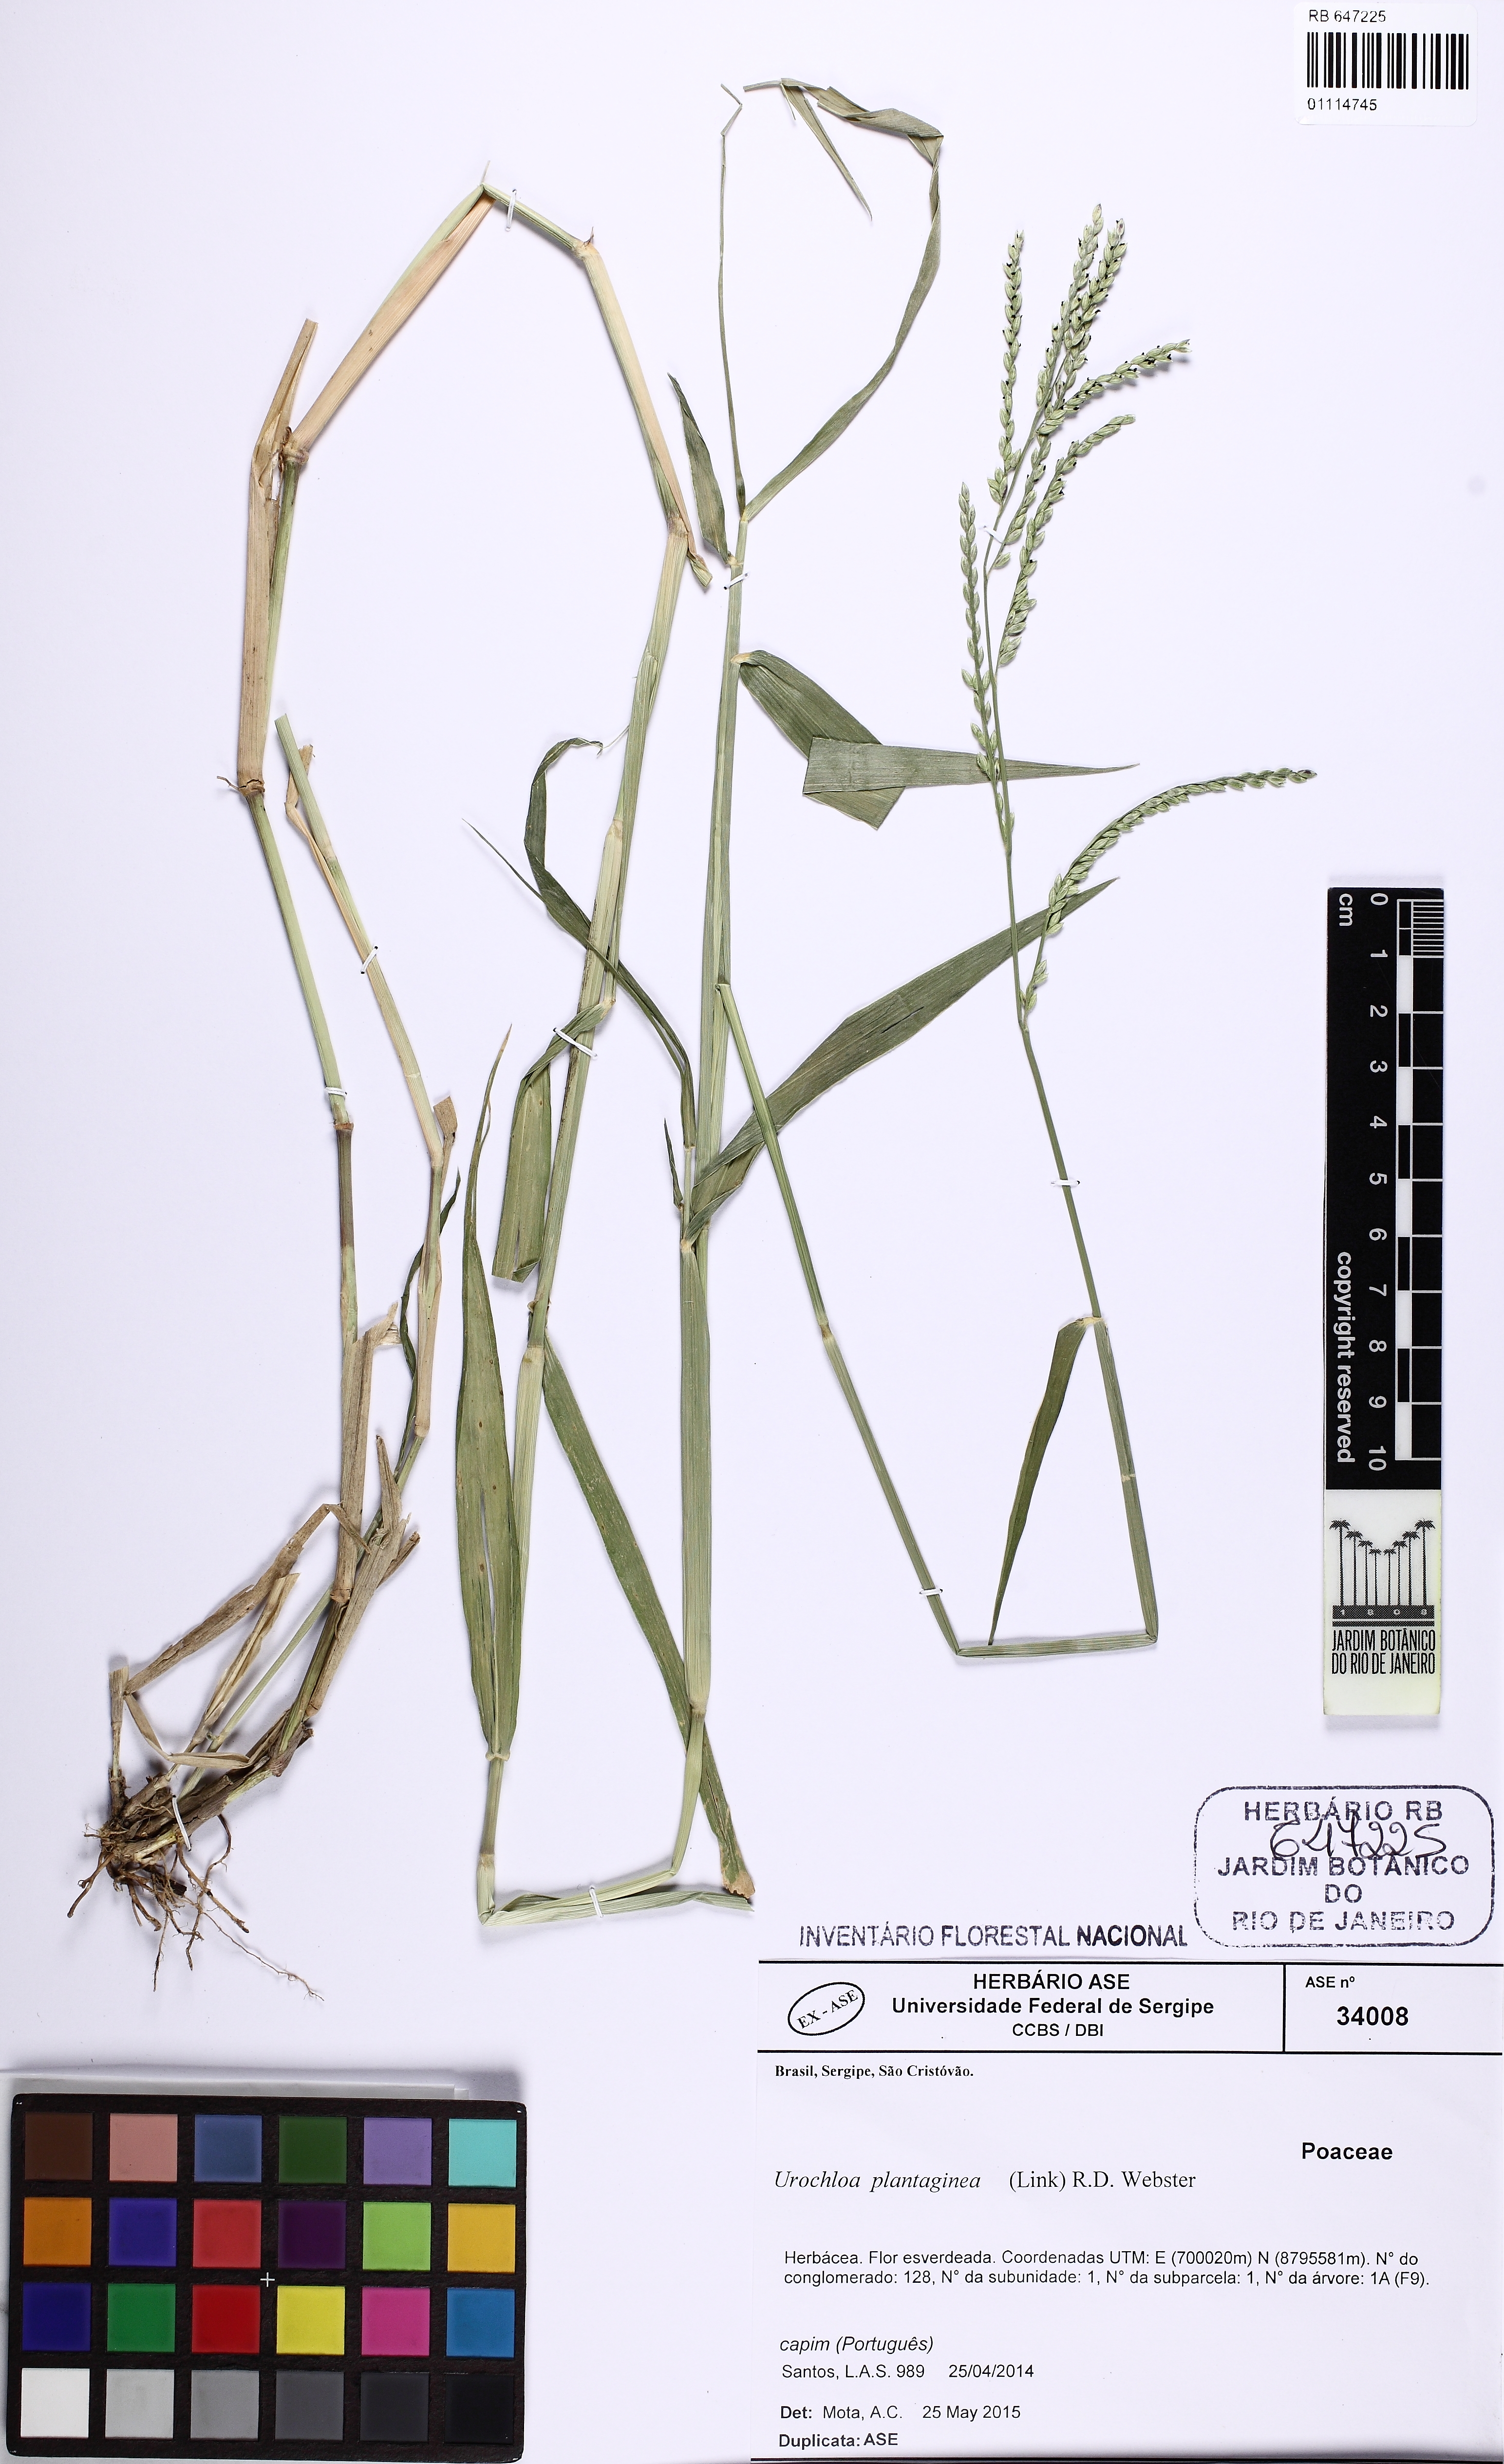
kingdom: Plantae
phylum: Tracheophyta
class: Liliopsida
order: Poales
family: Poaceae
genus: Urochloa
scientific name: Urochloa plantaginea
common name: Plantain signalgrass
